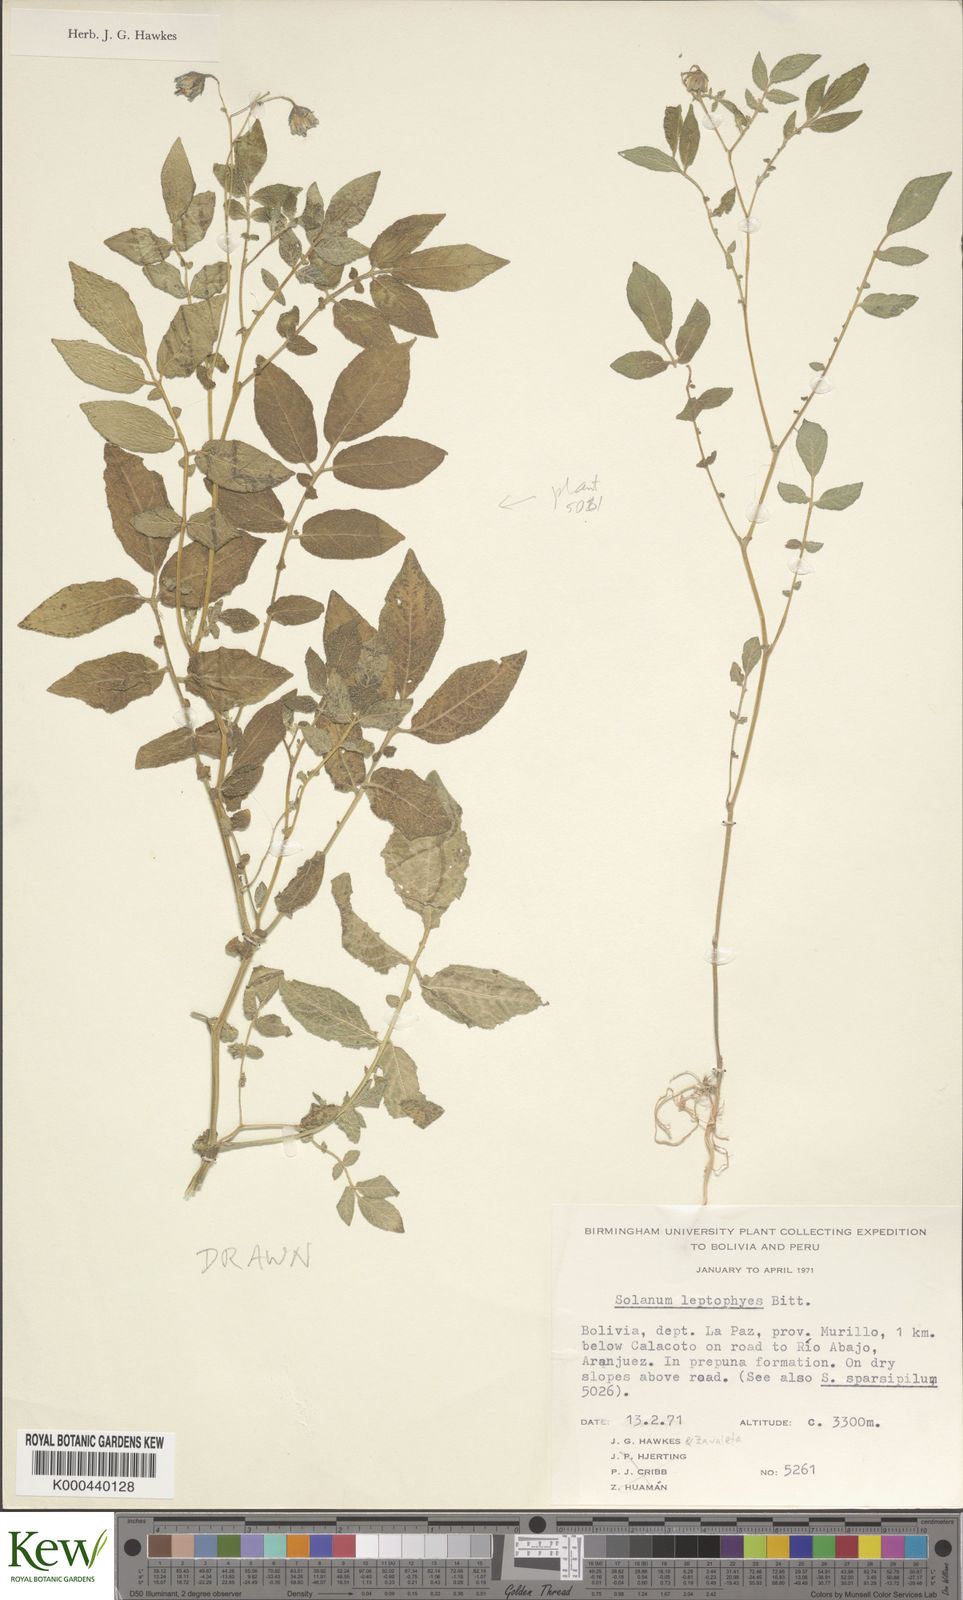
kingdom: Plantae
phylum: Tracheophyta
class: Magnoliopsida
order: Solanales
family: Solanaceae
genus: Solanum
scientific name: Solanum brevicaule
